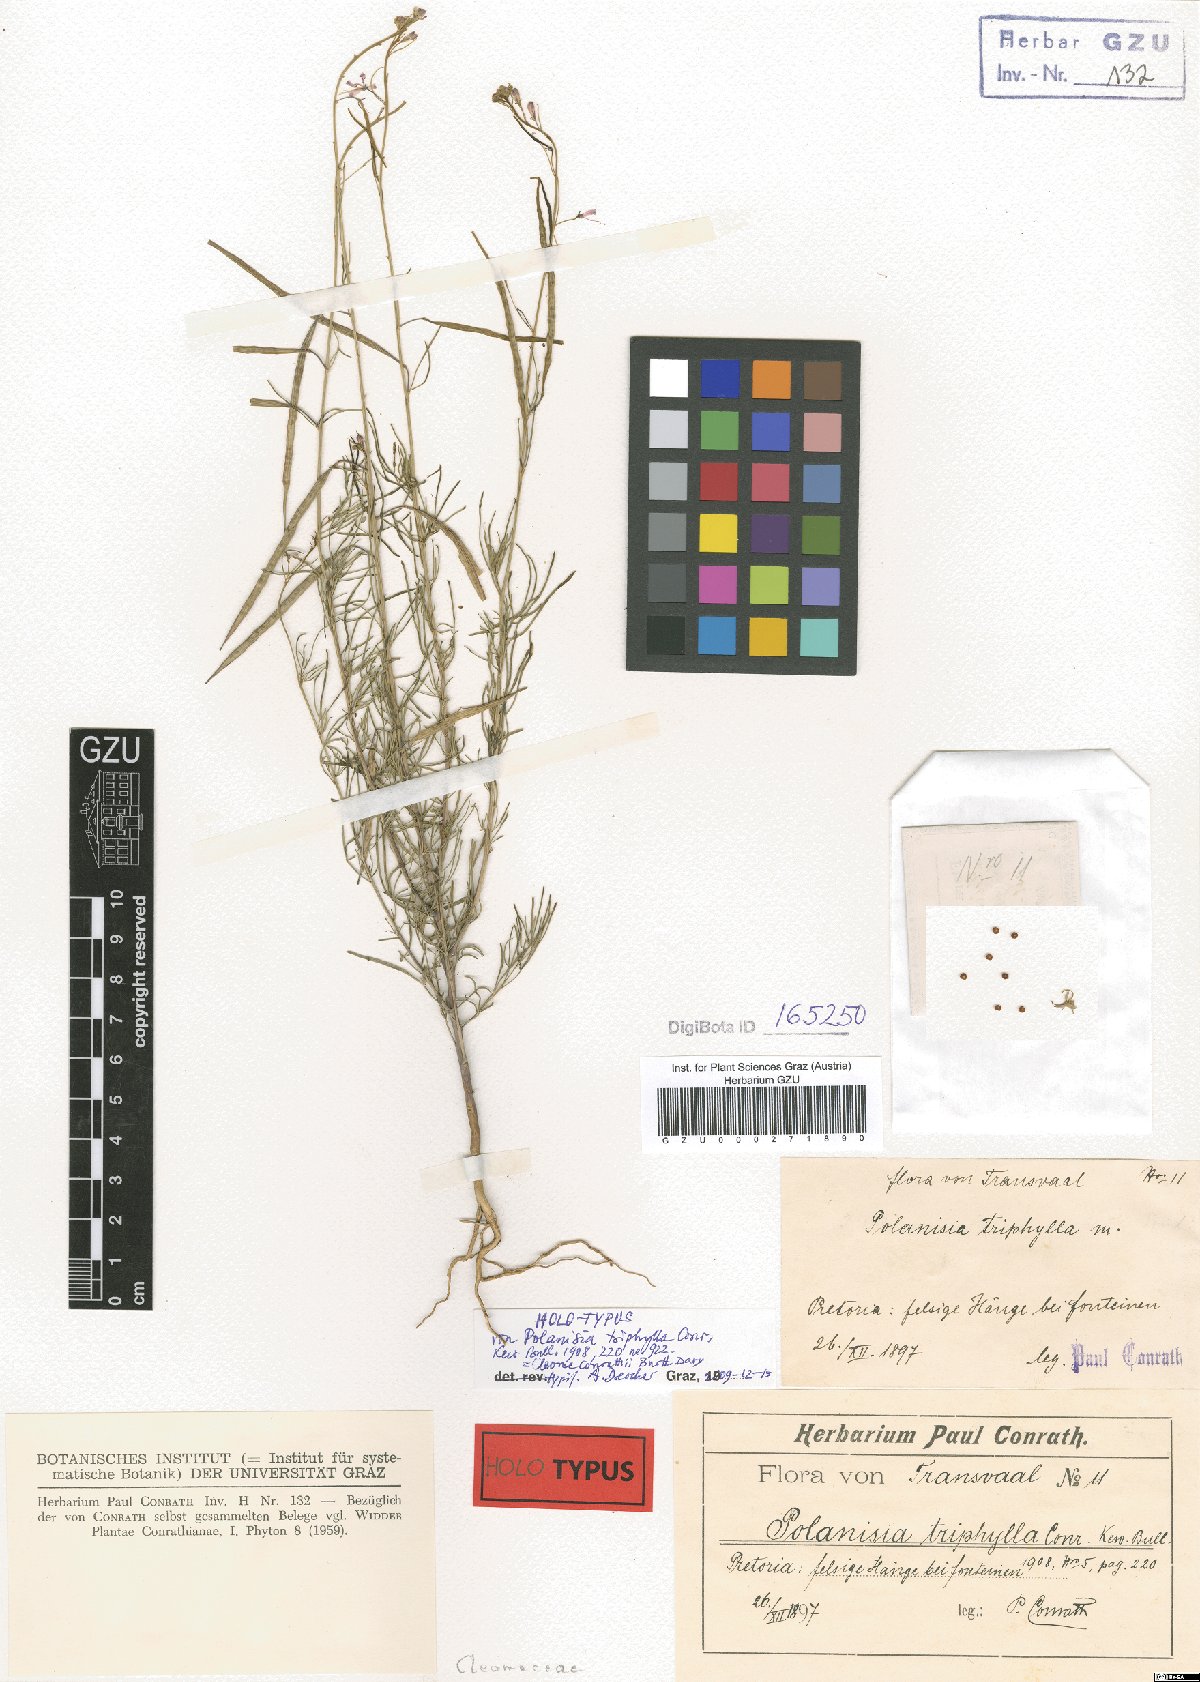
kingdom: Plantae
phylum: Tracheophyta
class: Magnoliopsida
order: Brassicales
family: Cleomaceae
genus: Sieruela
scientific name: Sieruela conrathii
